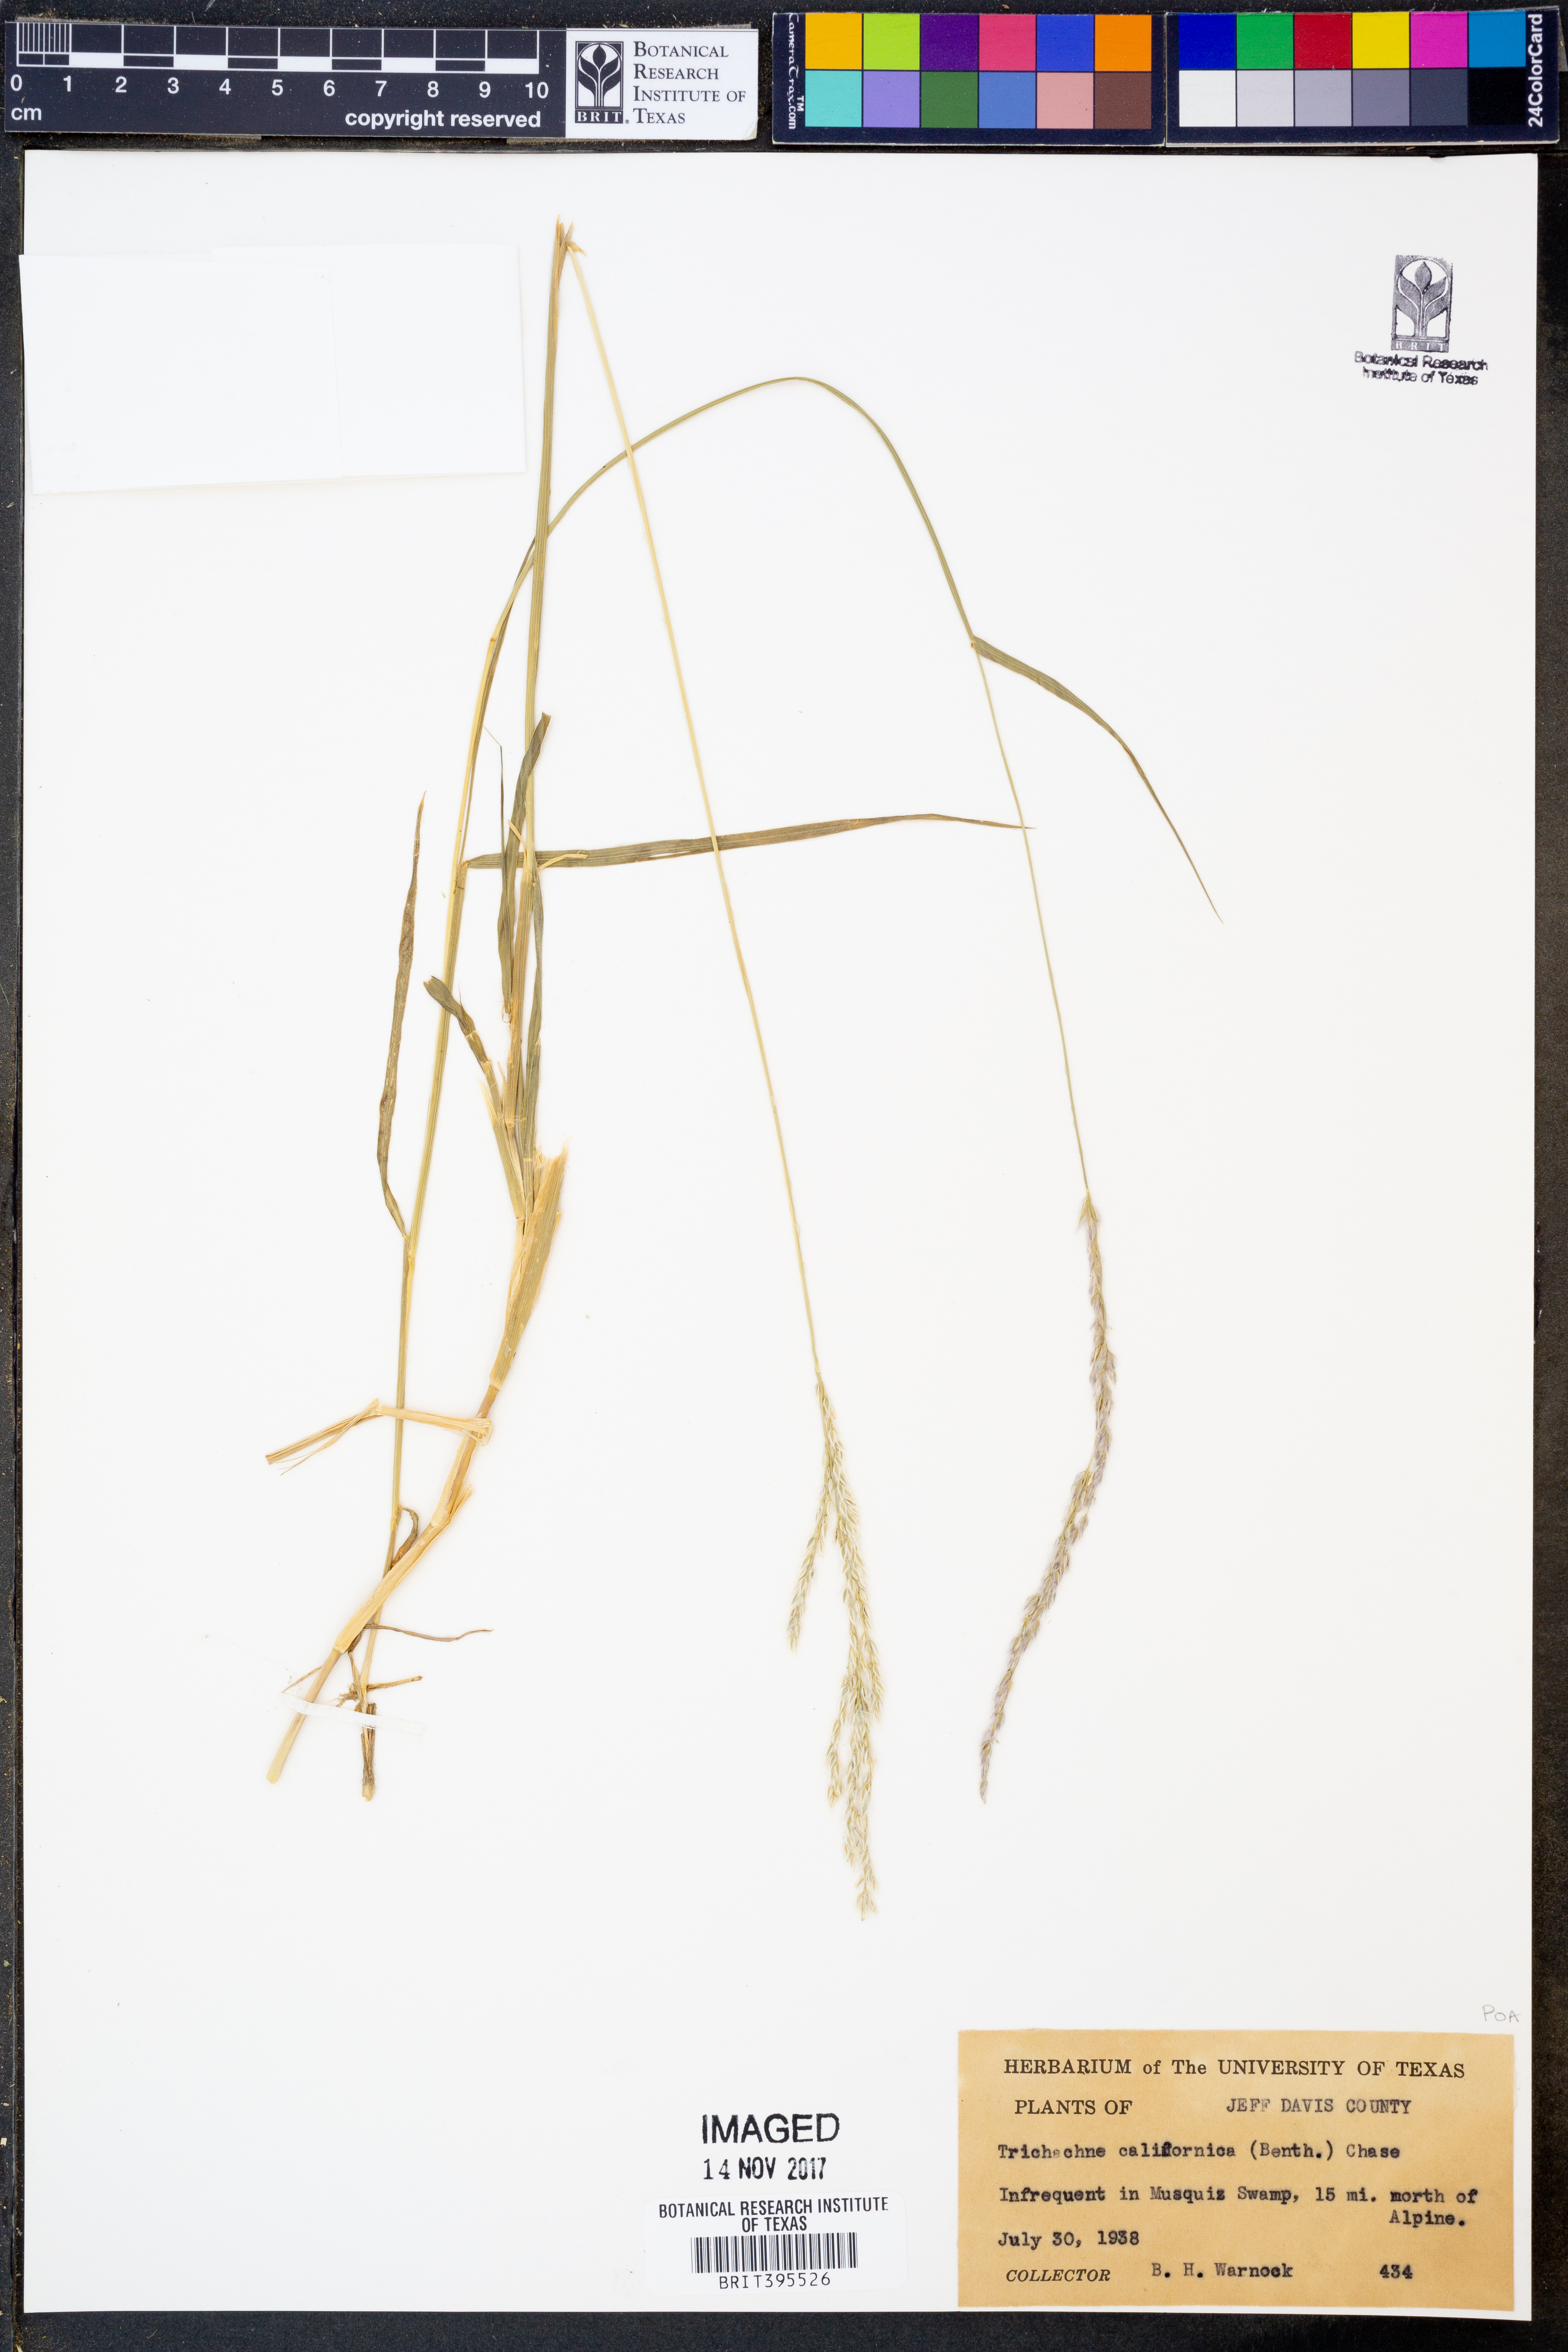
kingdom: Plantae
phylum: Tracheophyta
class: Liliopsida
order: Poales
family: Poaceae
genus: Digitaria
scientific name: Digitaria californica
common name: Arizona cottontop
